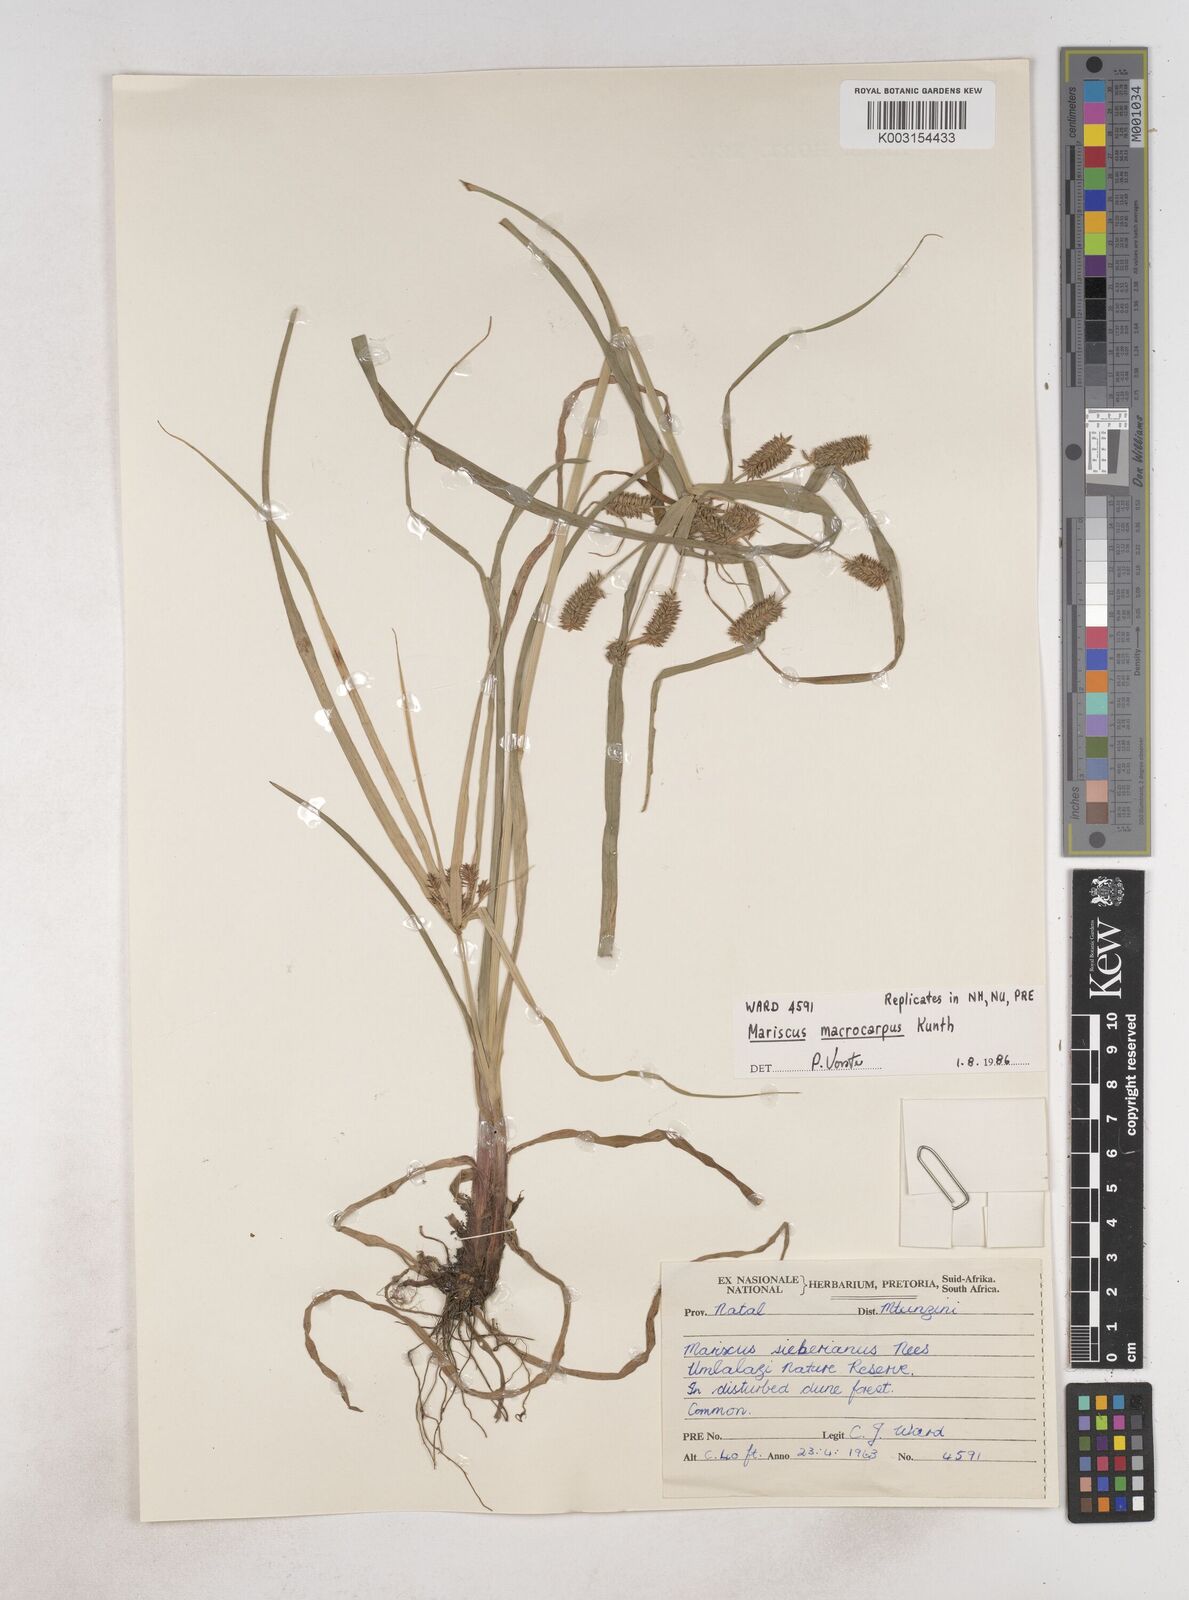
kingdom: Plantae
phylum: Tracheophyta
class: Liliopsida
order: Poales
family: Cyperaceae
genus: Cyperus
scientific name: Cyperus chersinus
